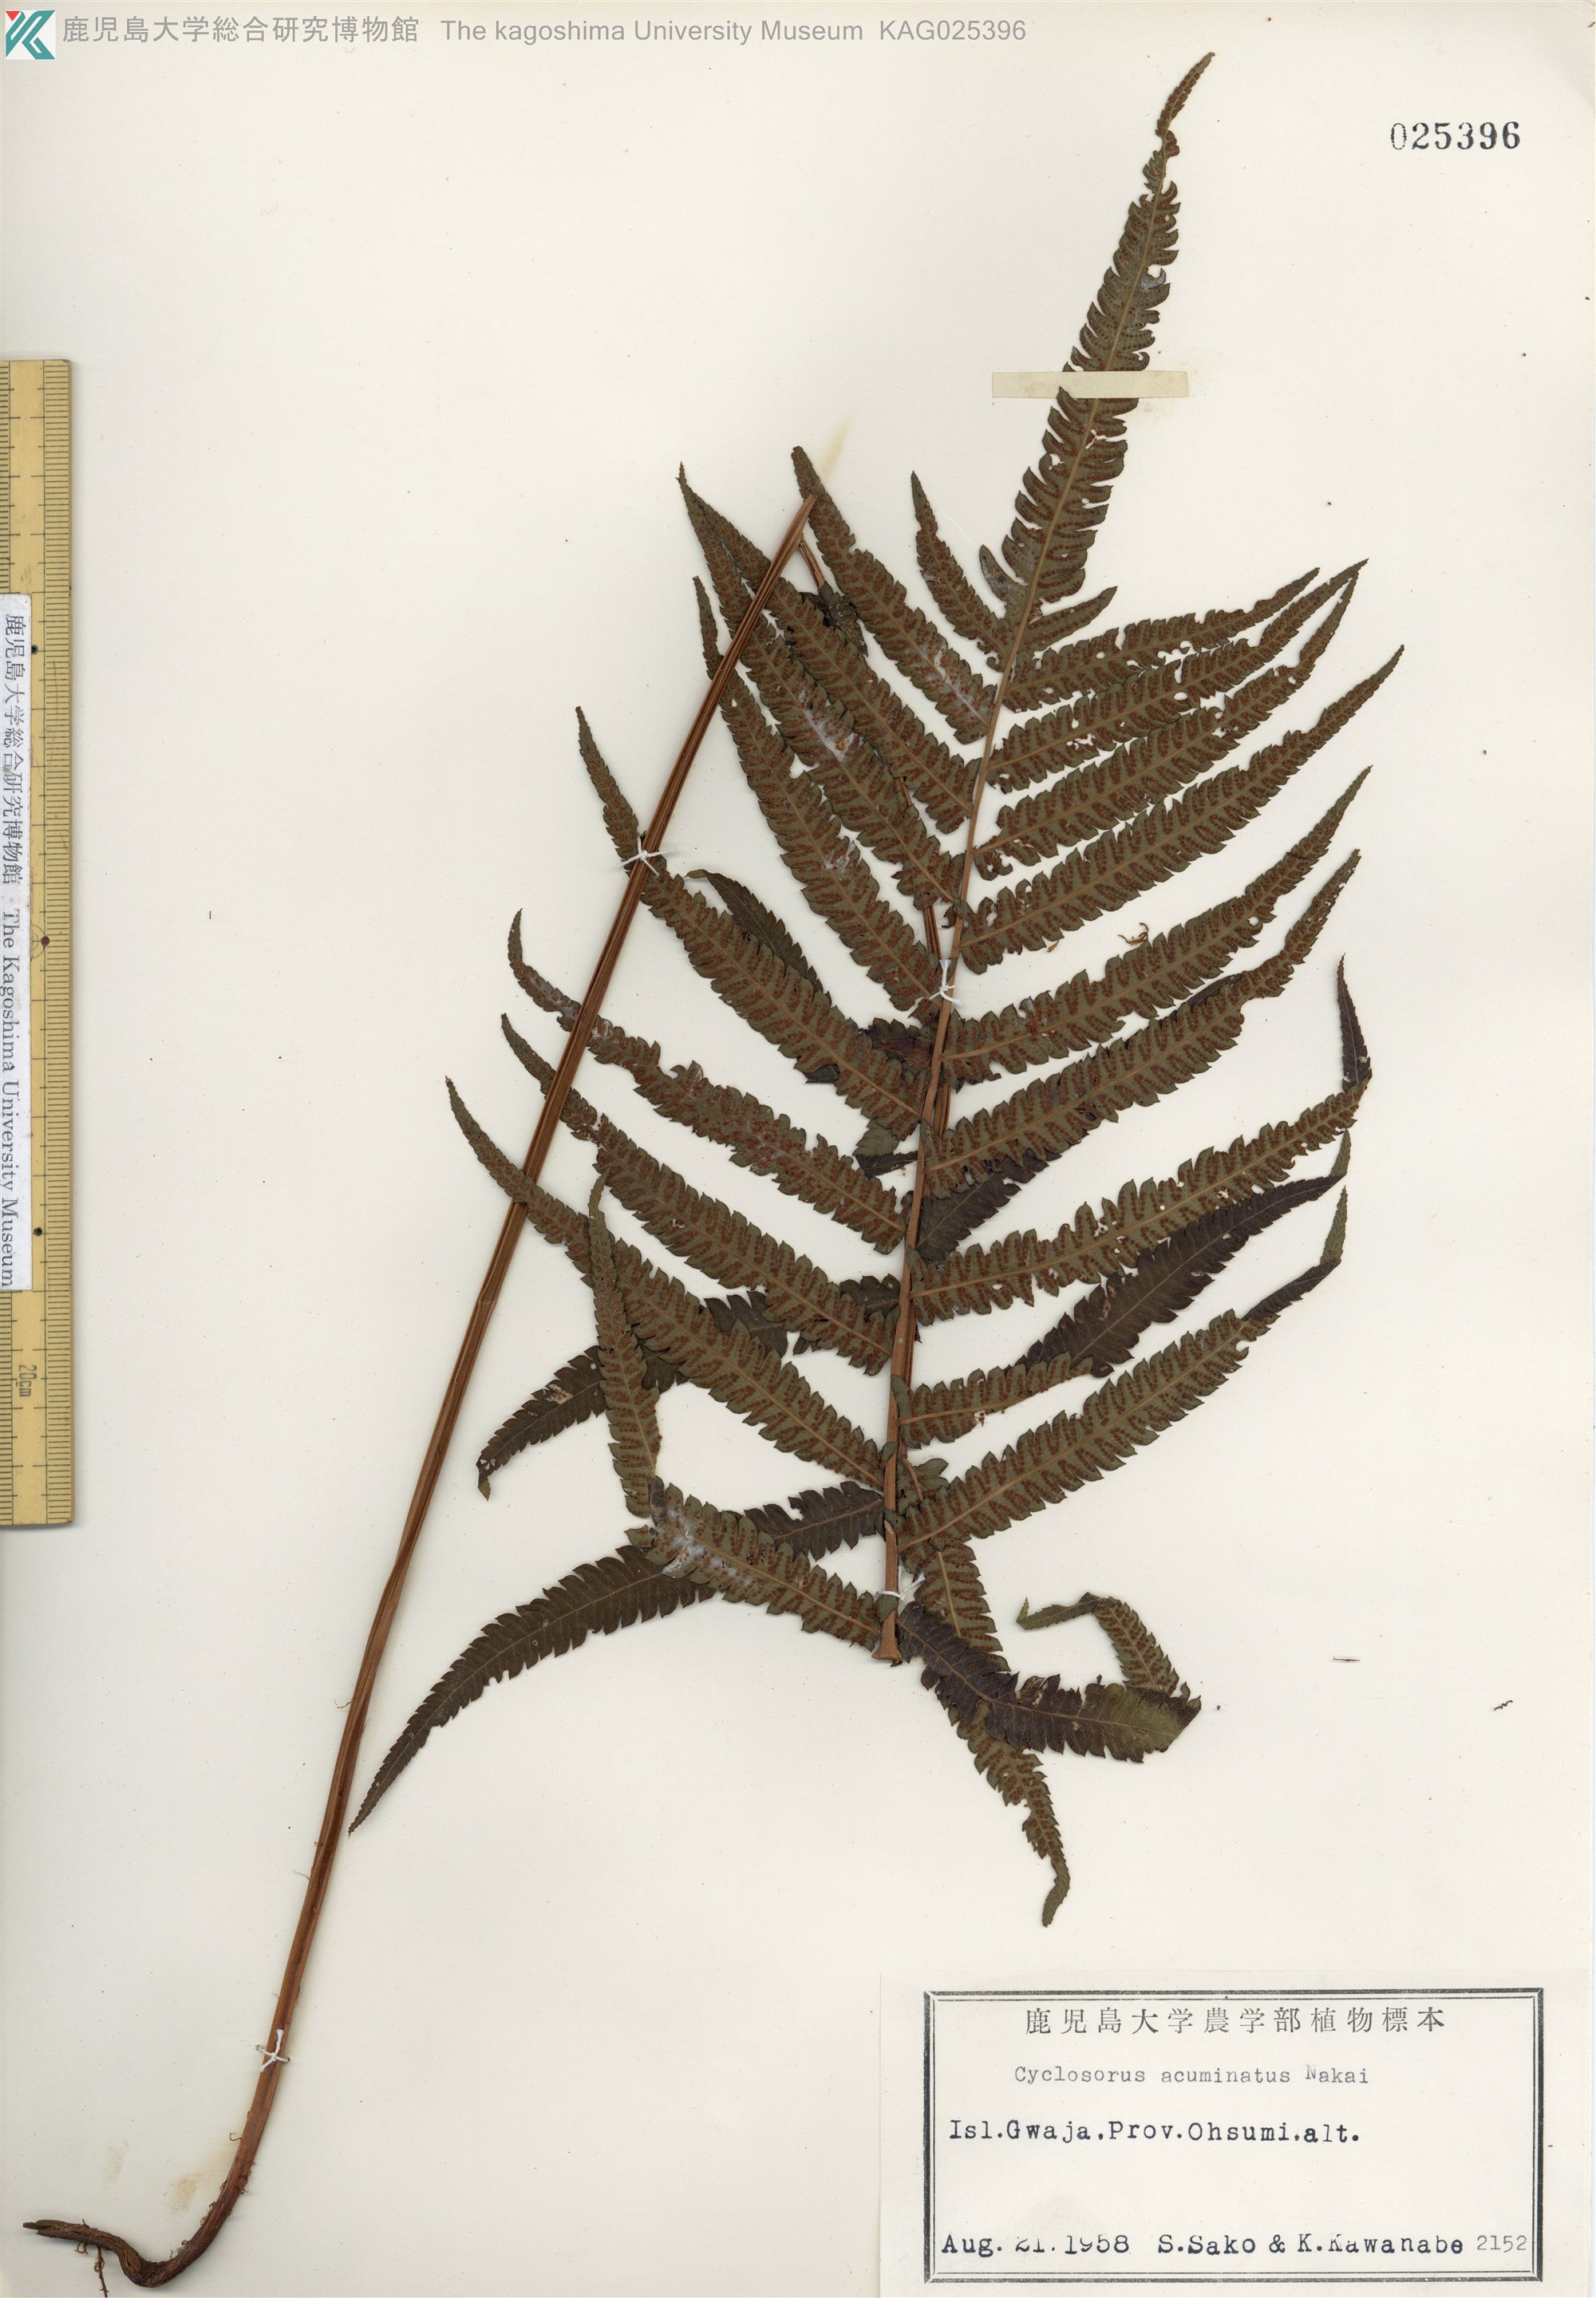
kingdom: Plantae
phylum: Tracheophyta
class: Polypodiopsida
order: Polypodiales
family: Thelypteridaceae
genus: Christella
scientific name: Christella acuminata
